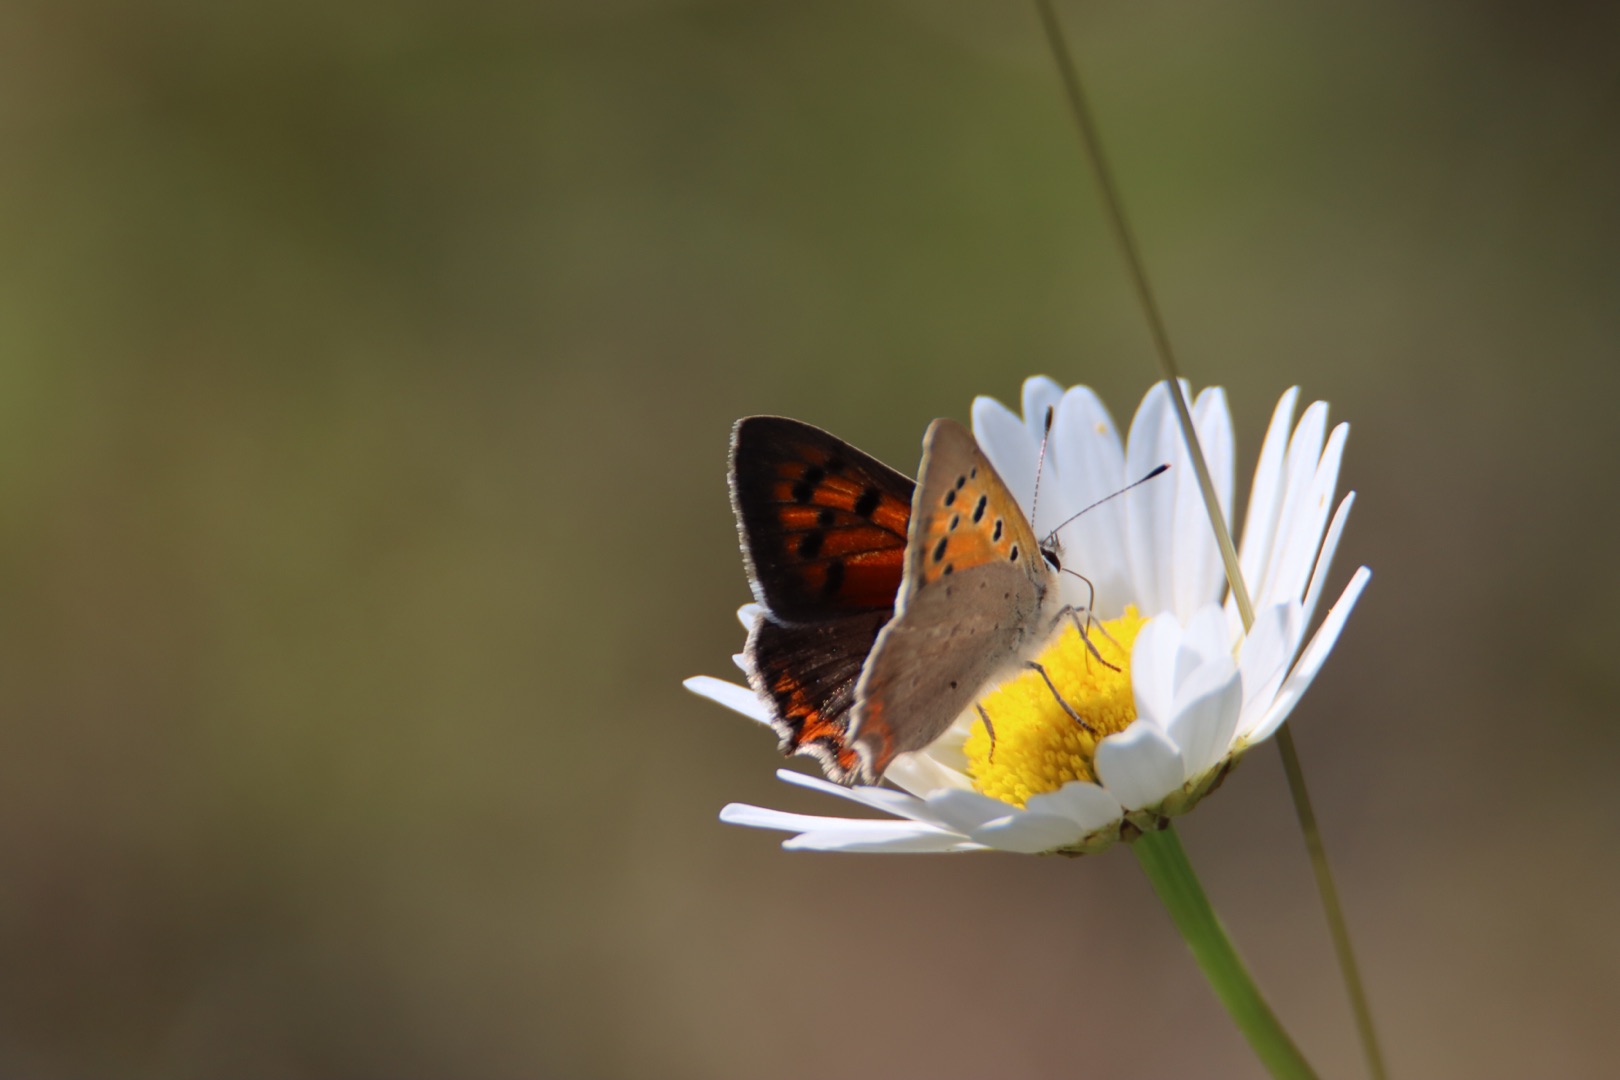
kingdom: Animalia
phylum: Arthropoda
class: Insecta
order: Lepidoptera
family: Lycaenidae
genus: Lycaena
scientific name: Lycaena phlaeas
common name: Lille ildfugl
